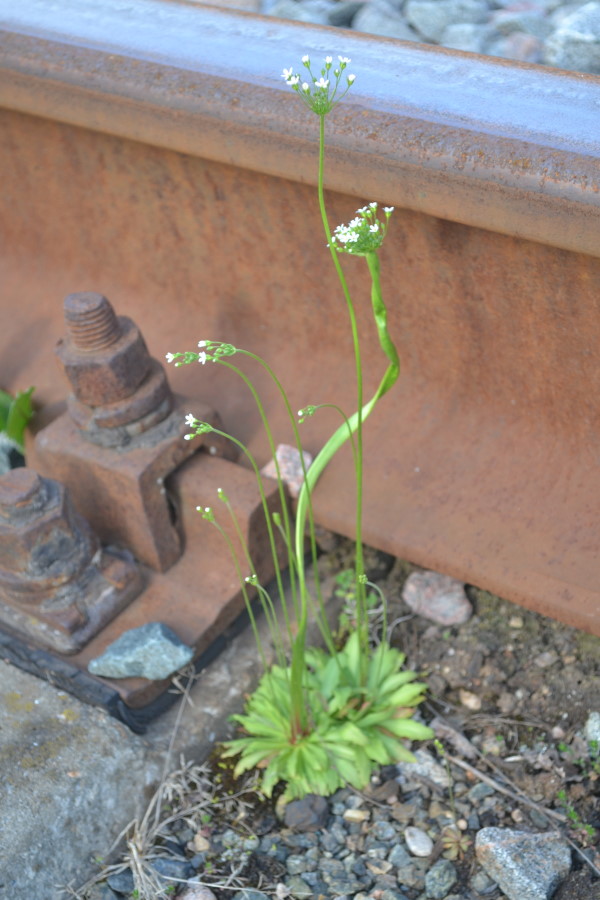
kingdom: Plantae
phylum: Tracheophyta
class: Magnoliopsida
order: Ericales
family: Primulaceae
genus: Androsace
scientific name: Androsace septentrionalis
